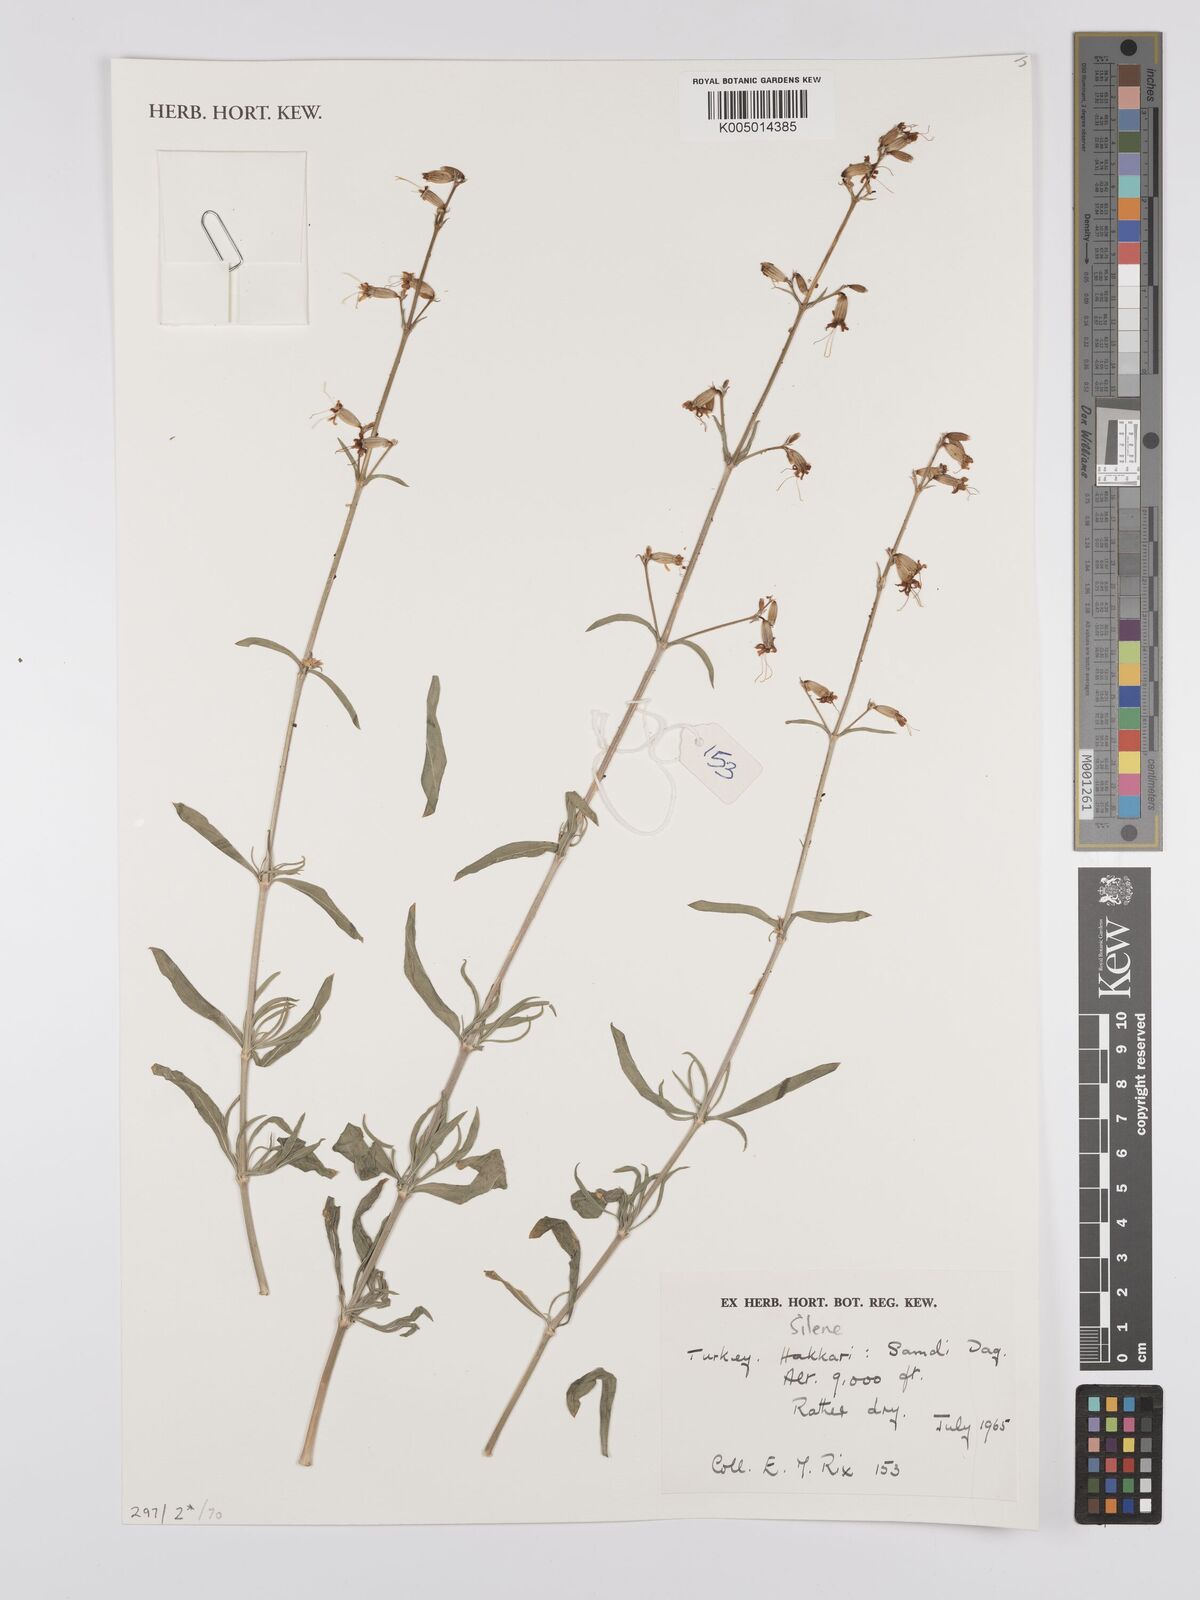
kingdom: Plantae
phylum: Tracheophyta
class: Magnoliopsida
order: Caryophyllales
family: Caryophyllaceae
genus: Silene
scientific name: Silene
